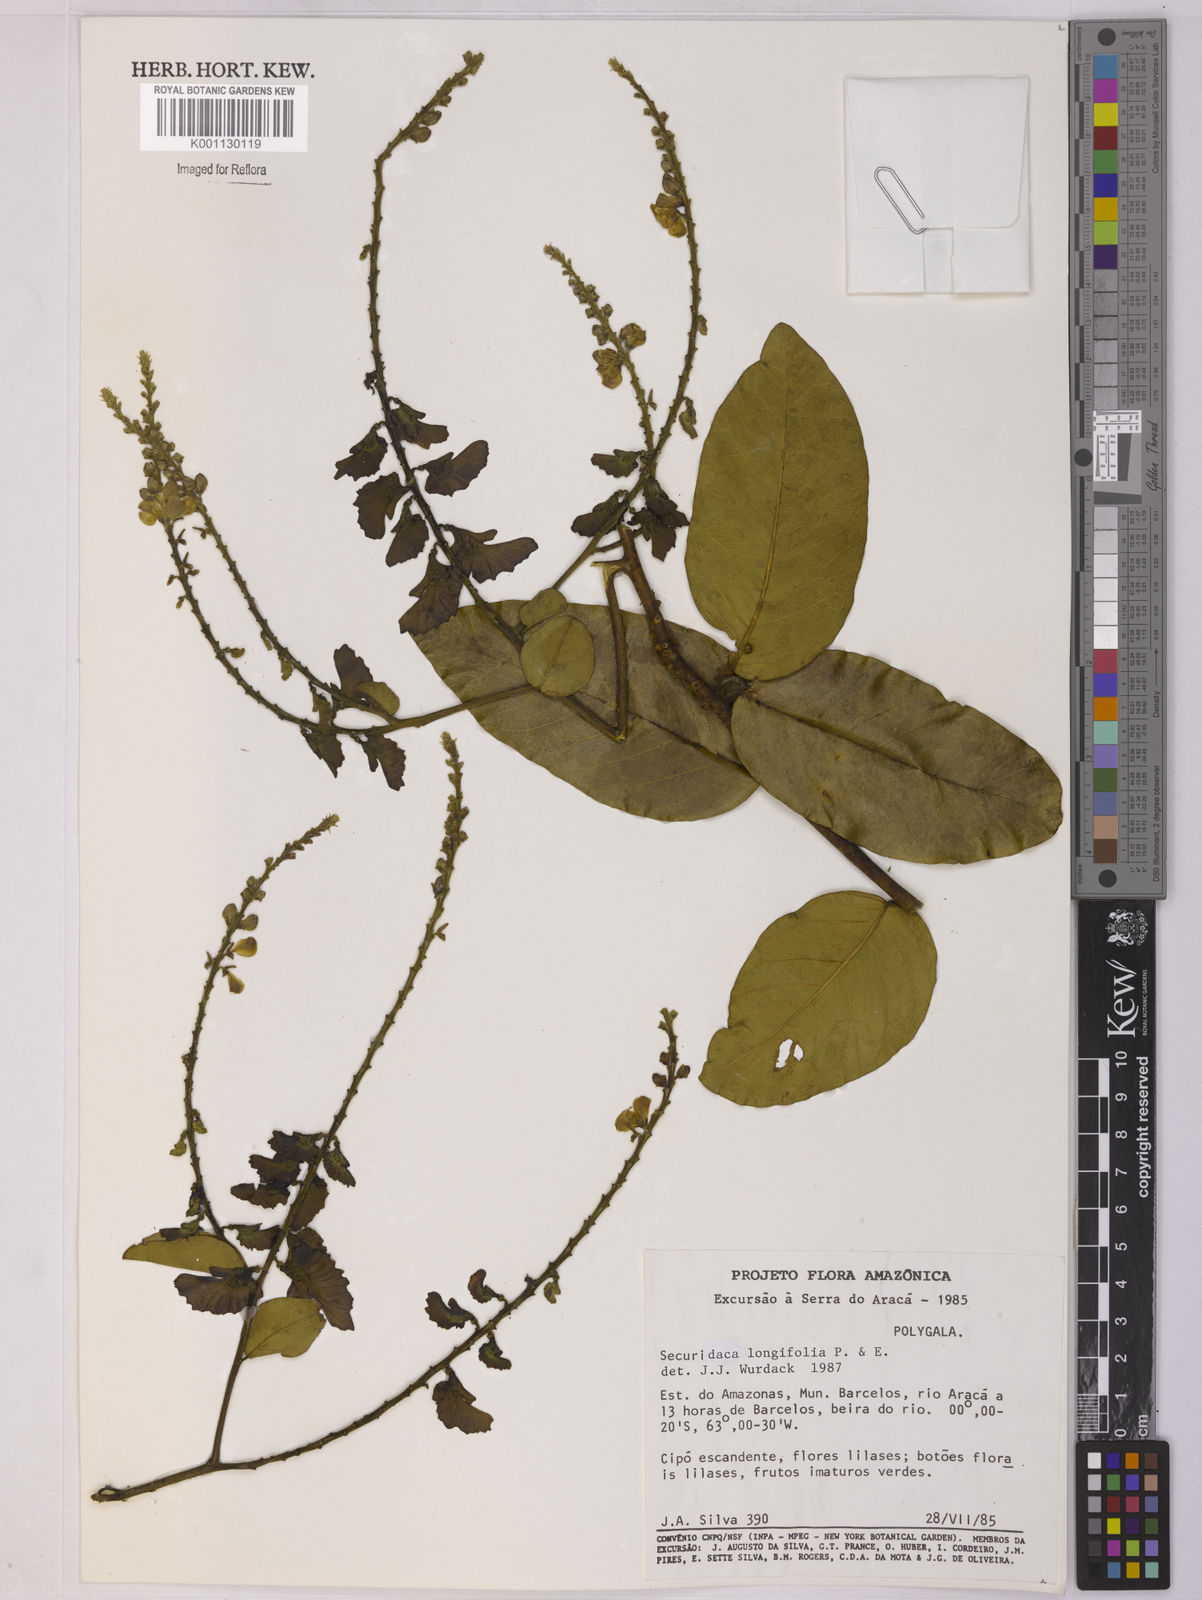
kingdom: Plantae
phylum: Tracheophyta
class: Magnoliopsida
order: Fabales
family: Polygalaceae
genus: Securidaca
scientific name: Securidaca longifolia
